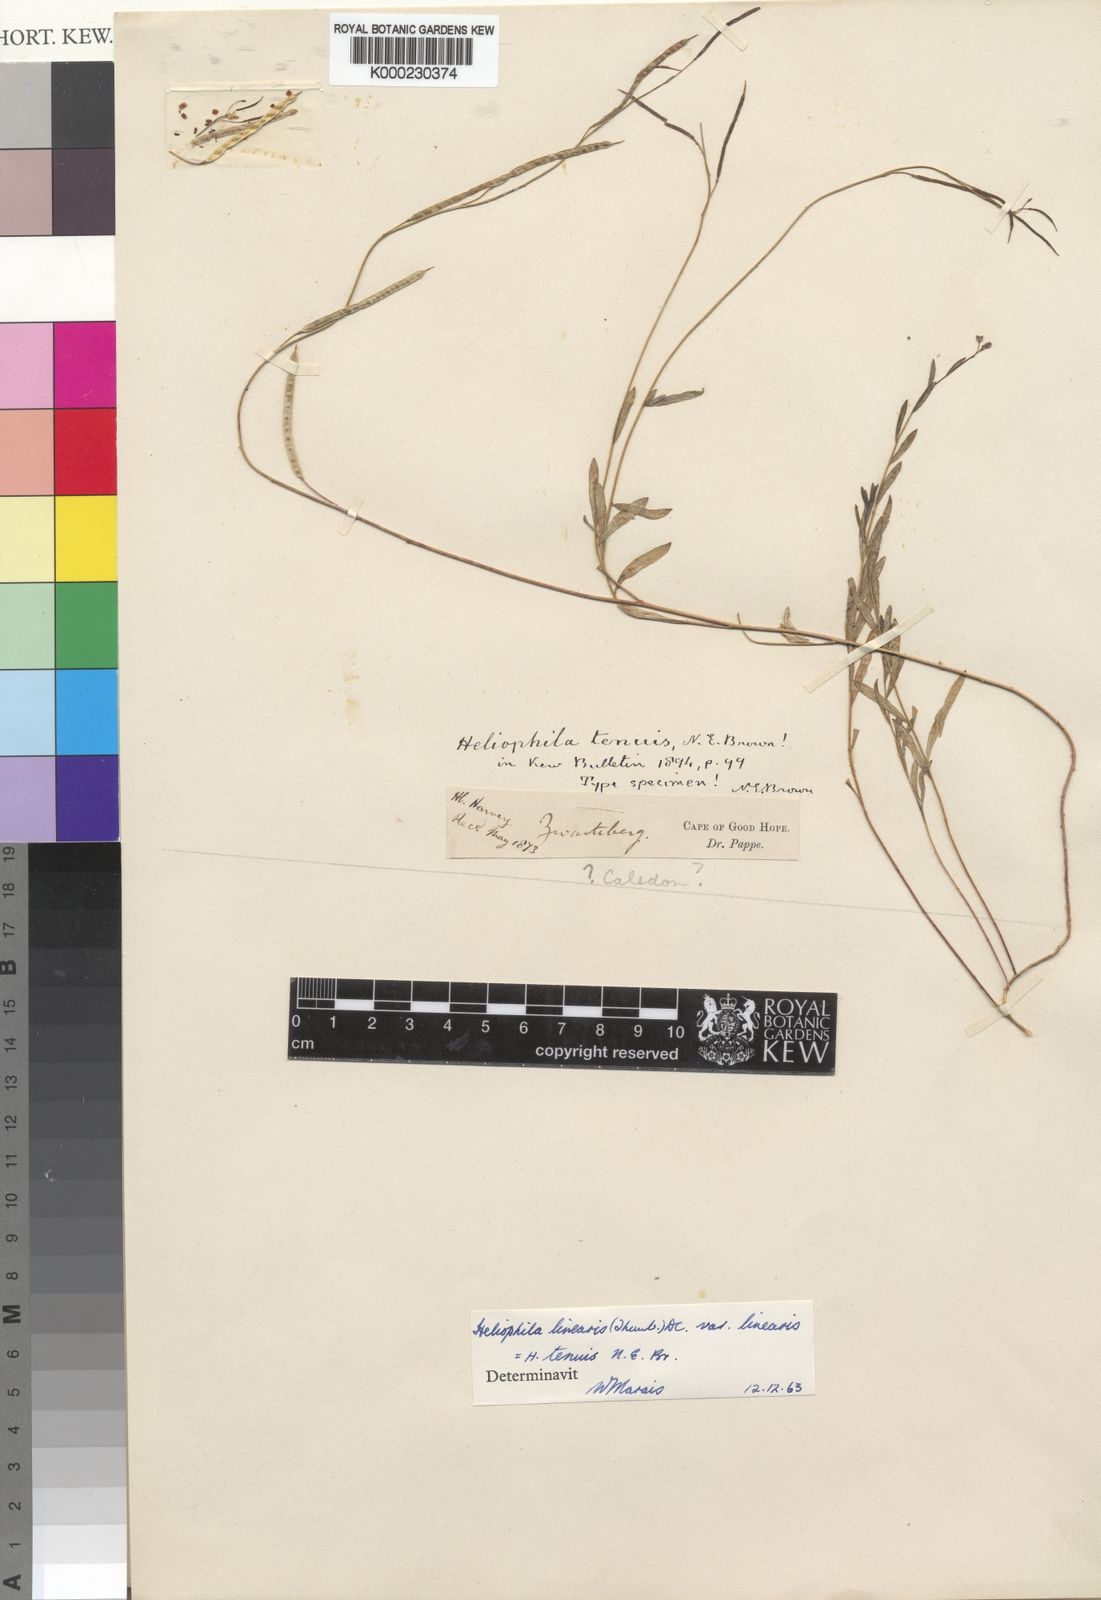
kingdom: Plantae
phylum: Tracheophyta
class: Magnoliopsida
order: Brassicales
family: Brassicaceae
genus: Heliophila
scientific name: Heliophila linearis
